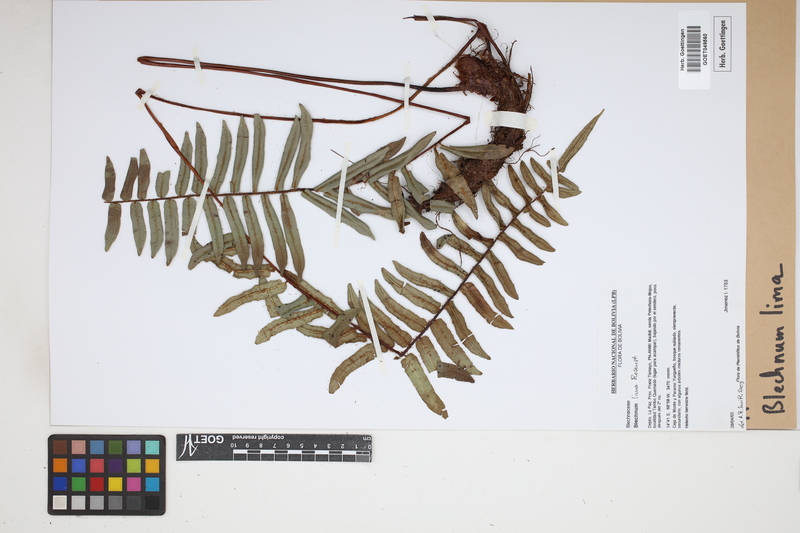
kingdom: Plantae
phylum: Tracheophyta
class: Polypodiopsida
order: Polypodiales
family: Blechnaceae
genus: Parablechnum
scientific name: Parablechnum lima
